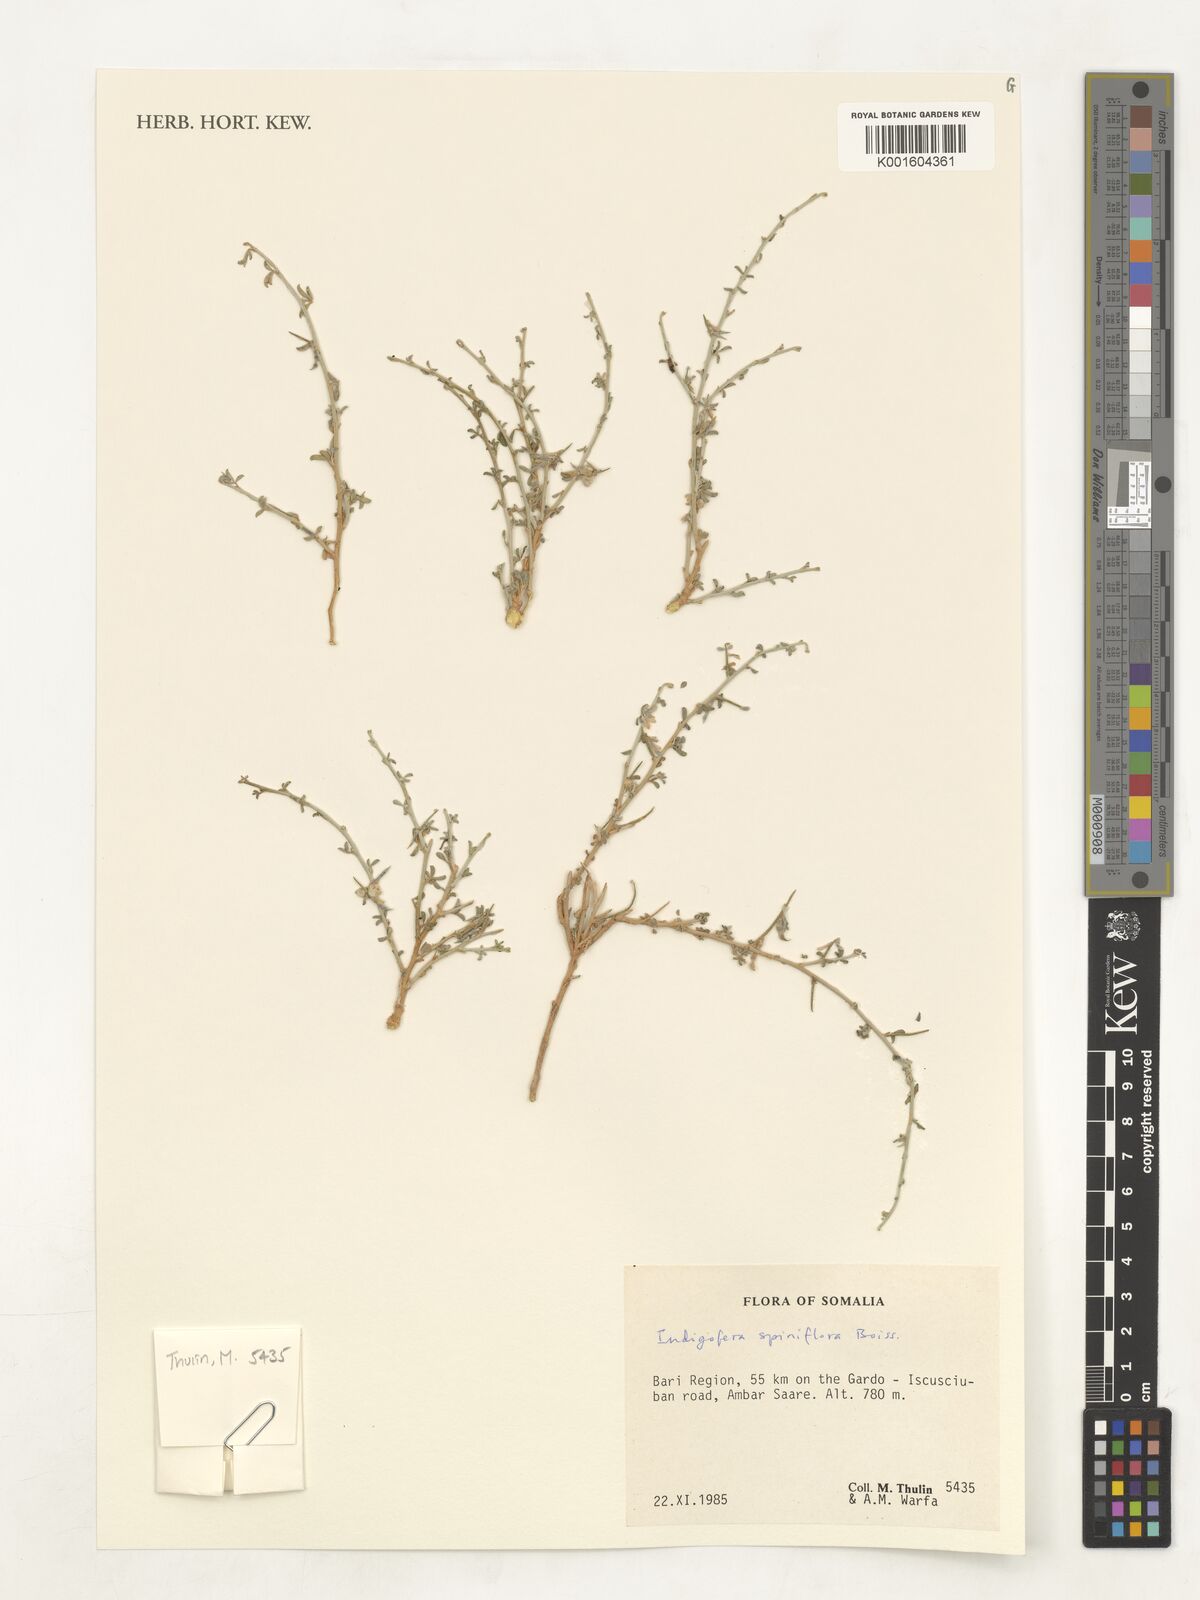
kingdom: Plantae
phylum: Tracheophyta
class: Magnoliopsida
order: Fabales
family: Fabaceae
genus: Indigofera
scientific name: Indigofera spiniflora
